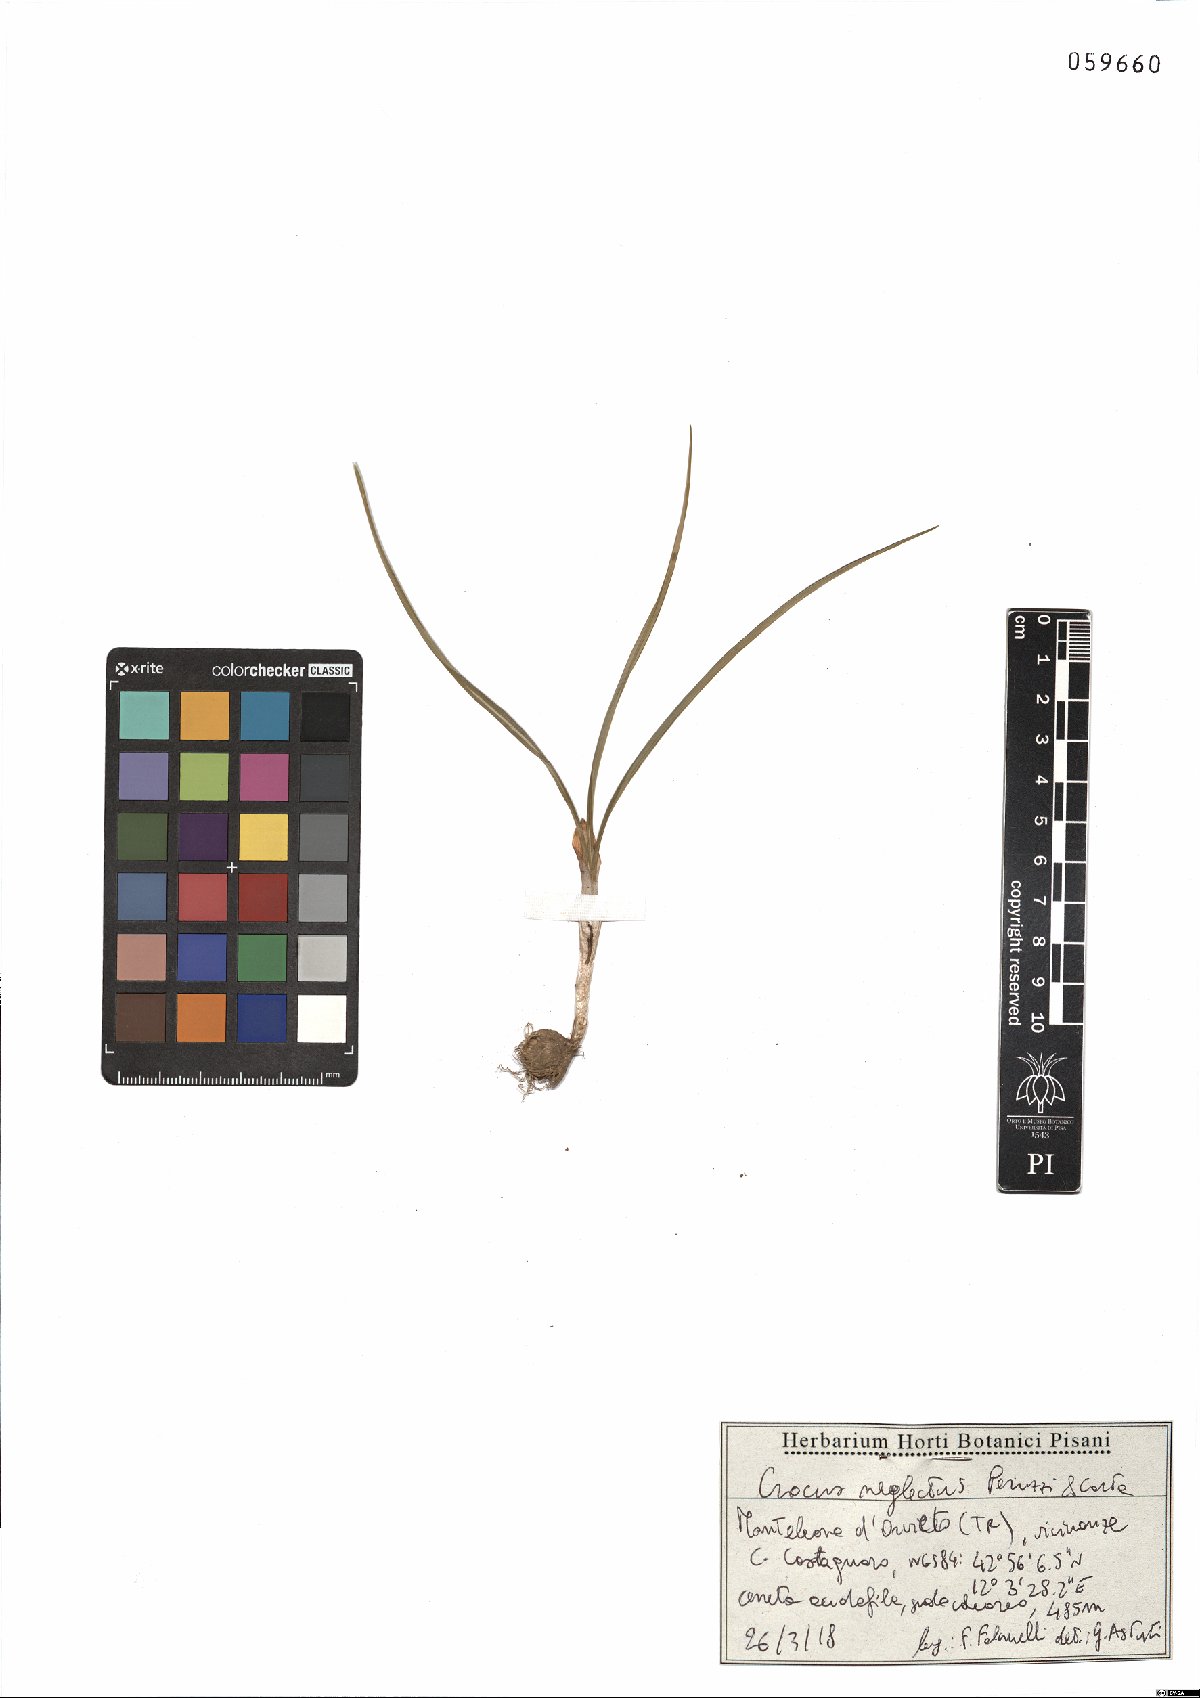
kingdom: Plantae
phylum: Tracheophyta
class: Liliopsida
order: Asparagales
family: Iridaceae
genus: Crocus
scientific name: Crocus neglectus
